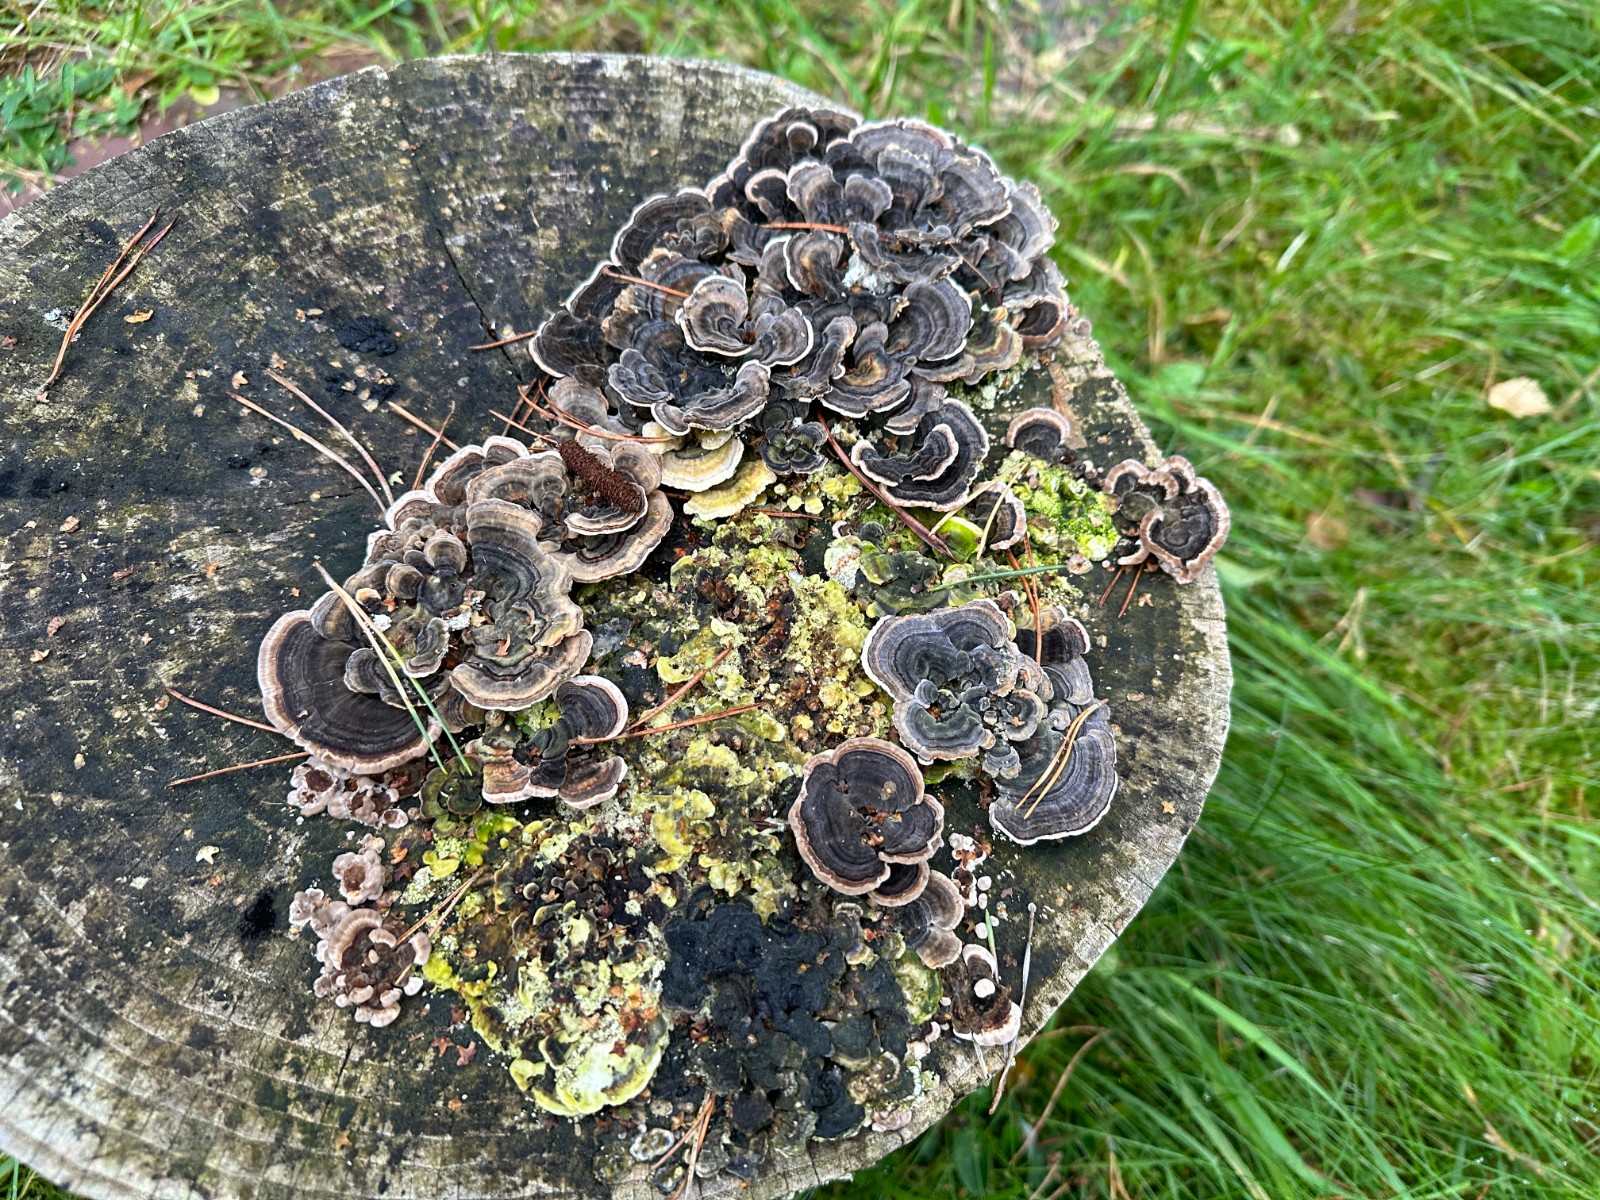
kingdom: Fungi
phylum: Basidiomycota
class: Agaricomycetes
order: Polyporales
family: Polyporaceae
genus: Trametes
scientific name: Trametes versicolor
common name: broget læderporesvamp
